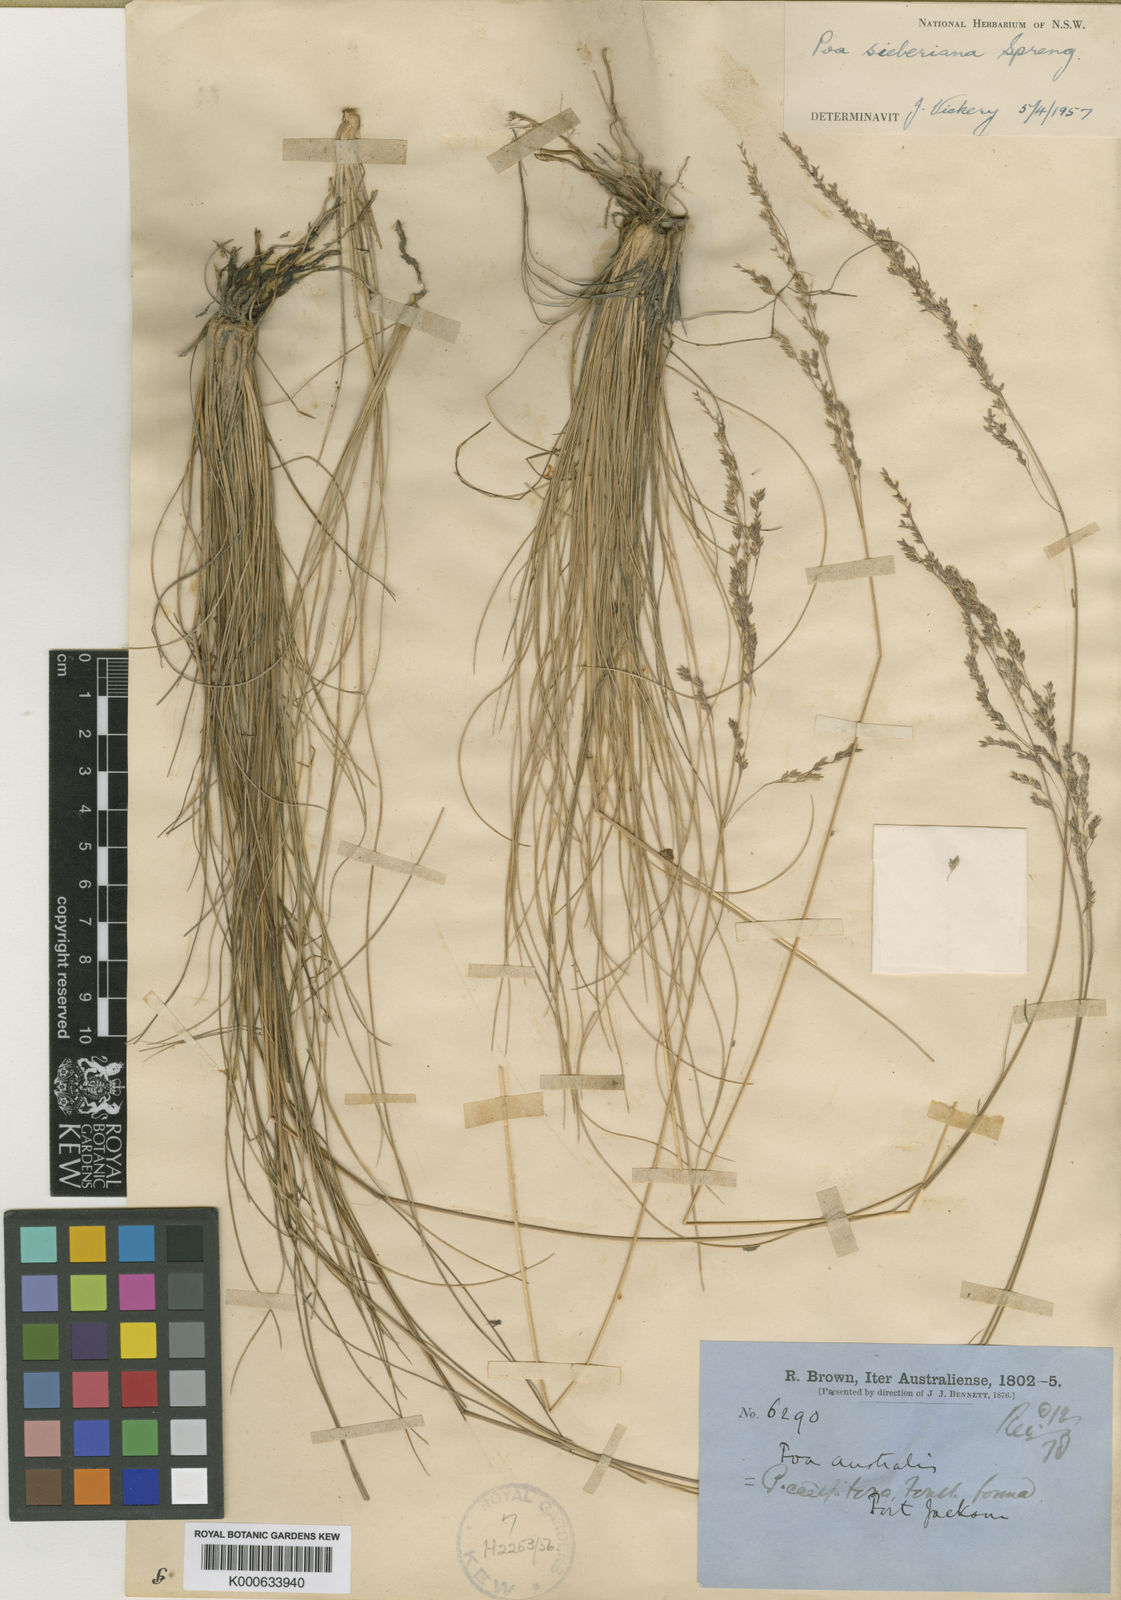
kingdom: Plantae
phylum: Tracheophyta
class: Liliopsida
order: Poales
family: Poaceae
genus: Poa
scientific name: Poa sieberiana
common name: Tussock poa
